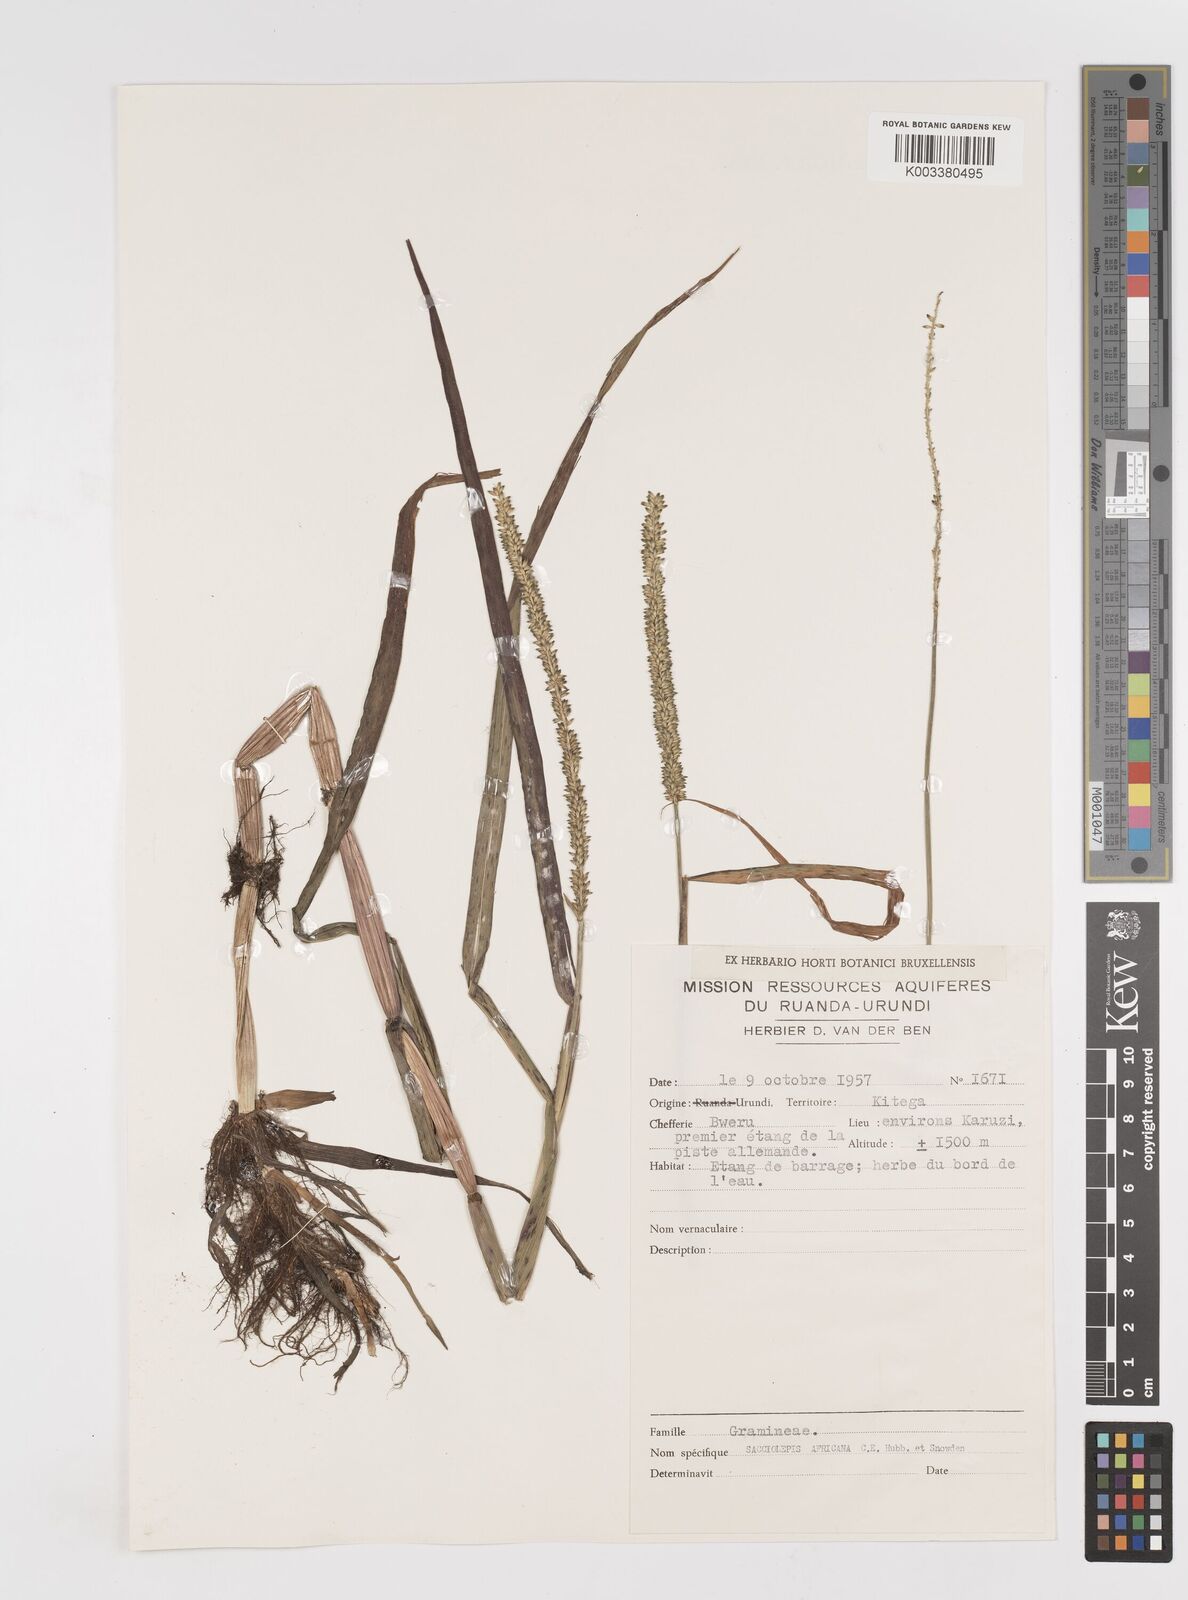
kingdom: Plantae
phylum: Tracheophyta
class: Liliopsida
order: Poales
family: Poaceae
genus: Sacciolepis
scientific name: Sacciolepis africana
